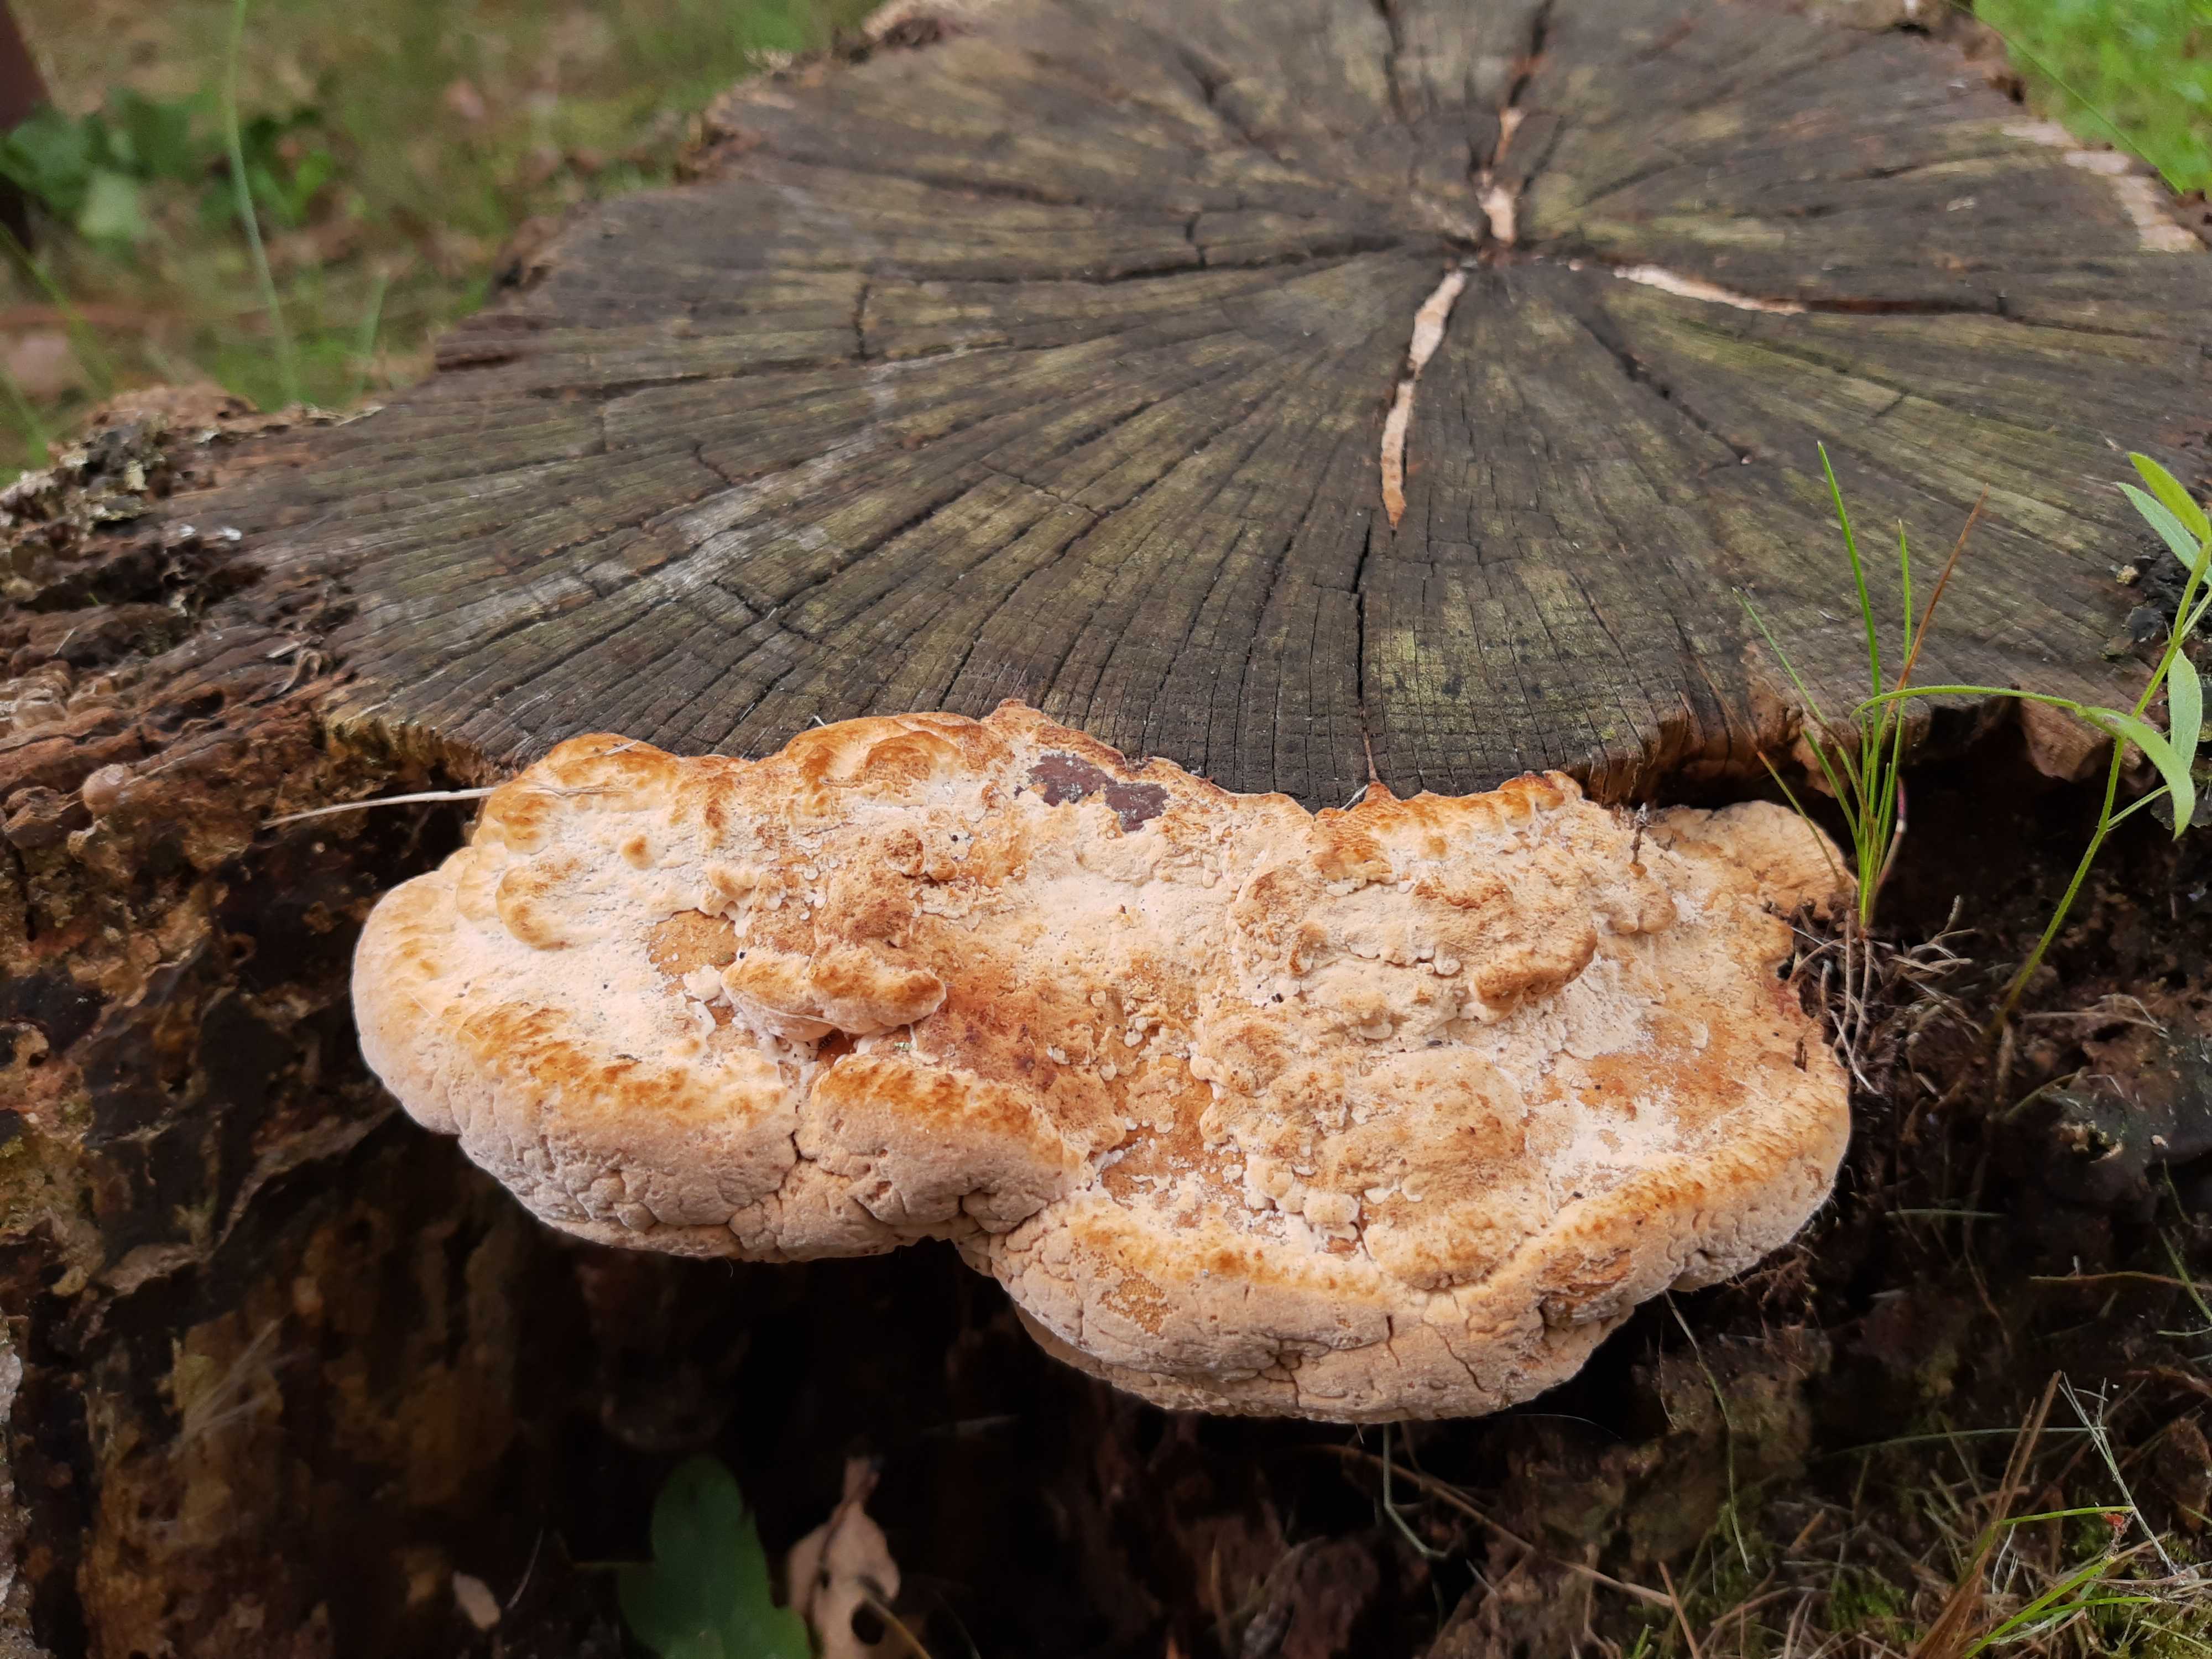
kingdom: Fungi
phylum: Basidiomycota
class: Agaricomycetes
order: Polyporales
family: Fomitopsidaceae
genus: Daedalea
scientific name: Daedalea quercina
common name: ege-labyrintsvamp
